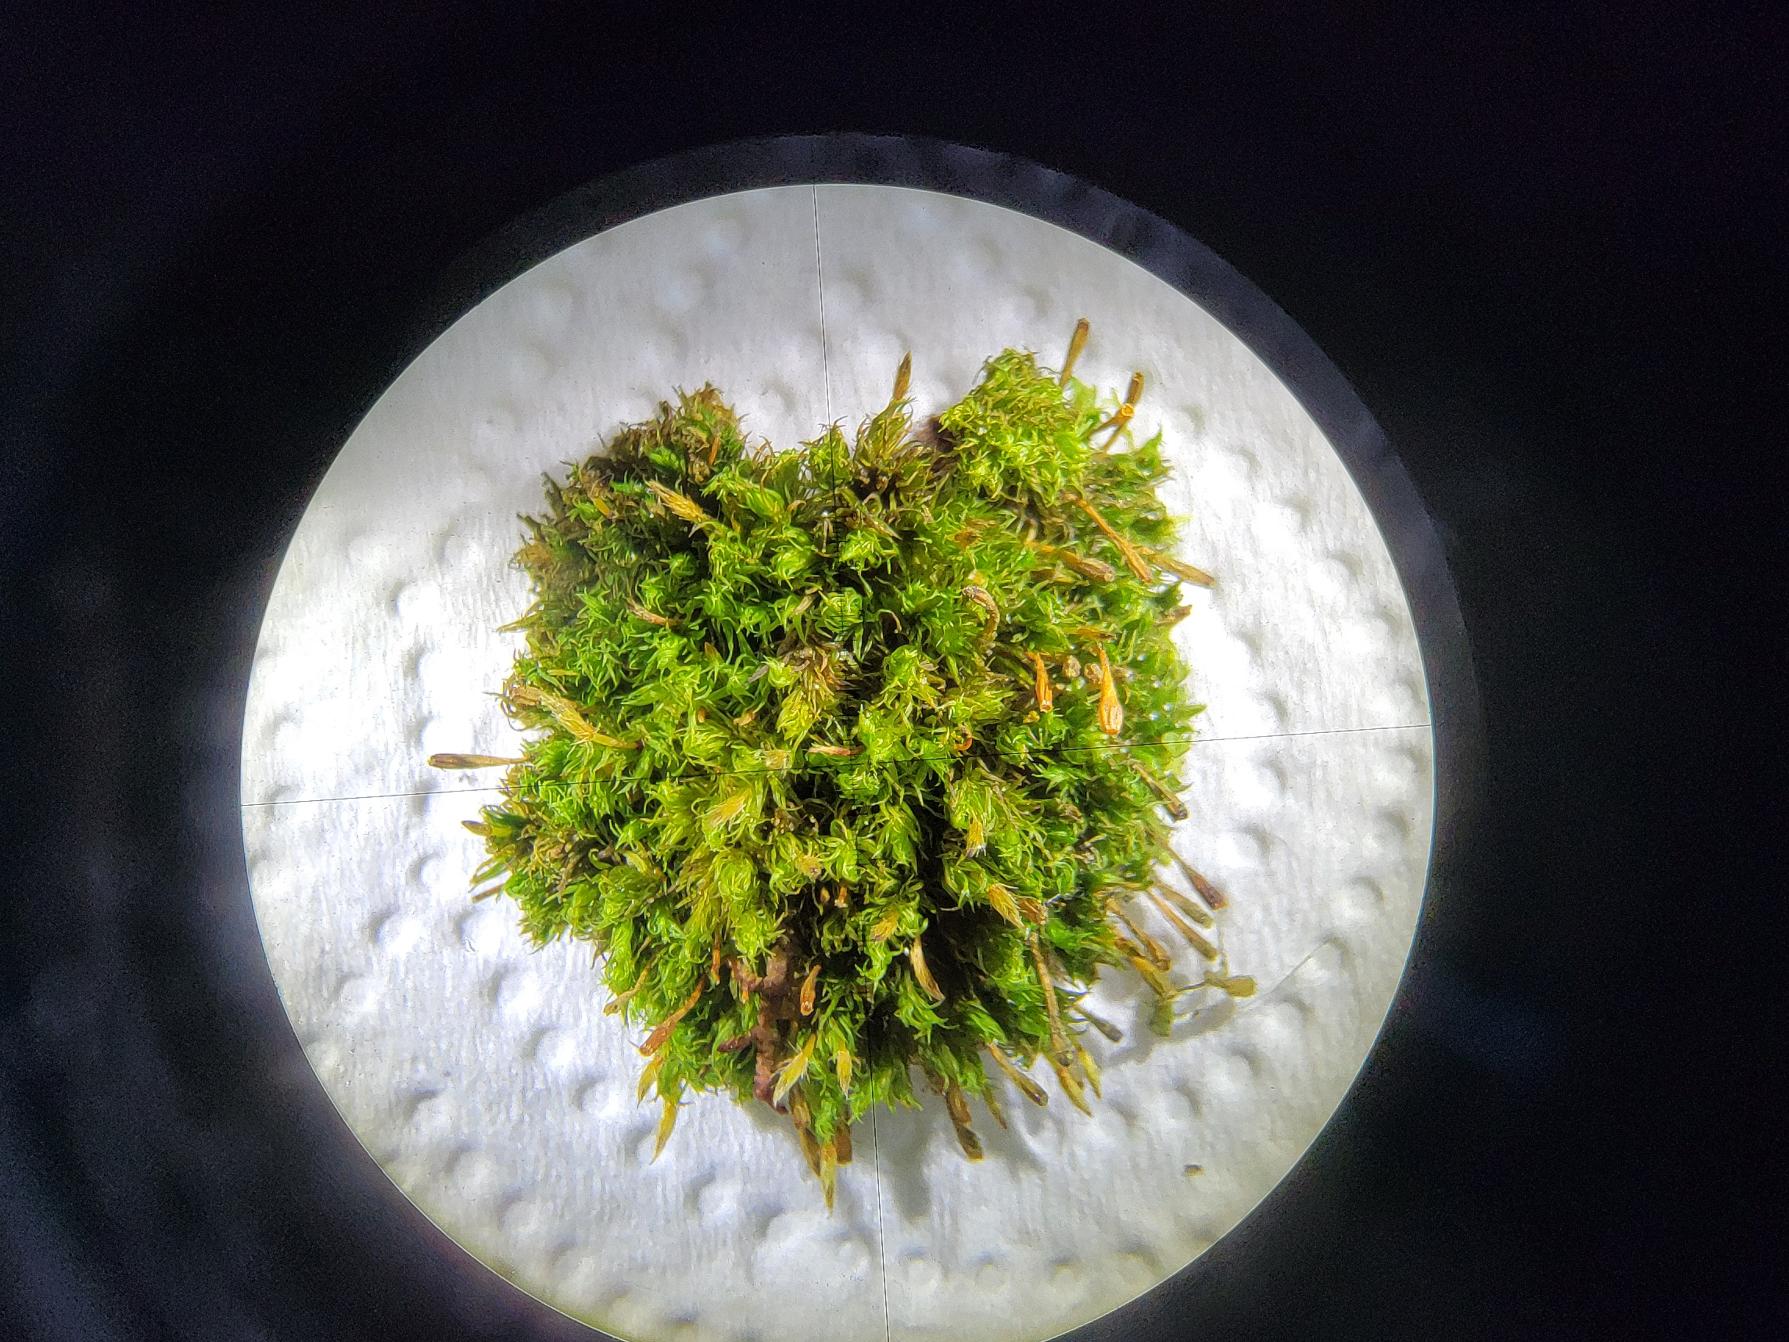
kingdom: Plantae
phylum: Bryophyta
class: Bryopsida
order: Orthotrichales
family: Orthotrichaceae
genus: Ulota
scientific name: Ulota bruchii
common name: Bruchs låddenhætte
